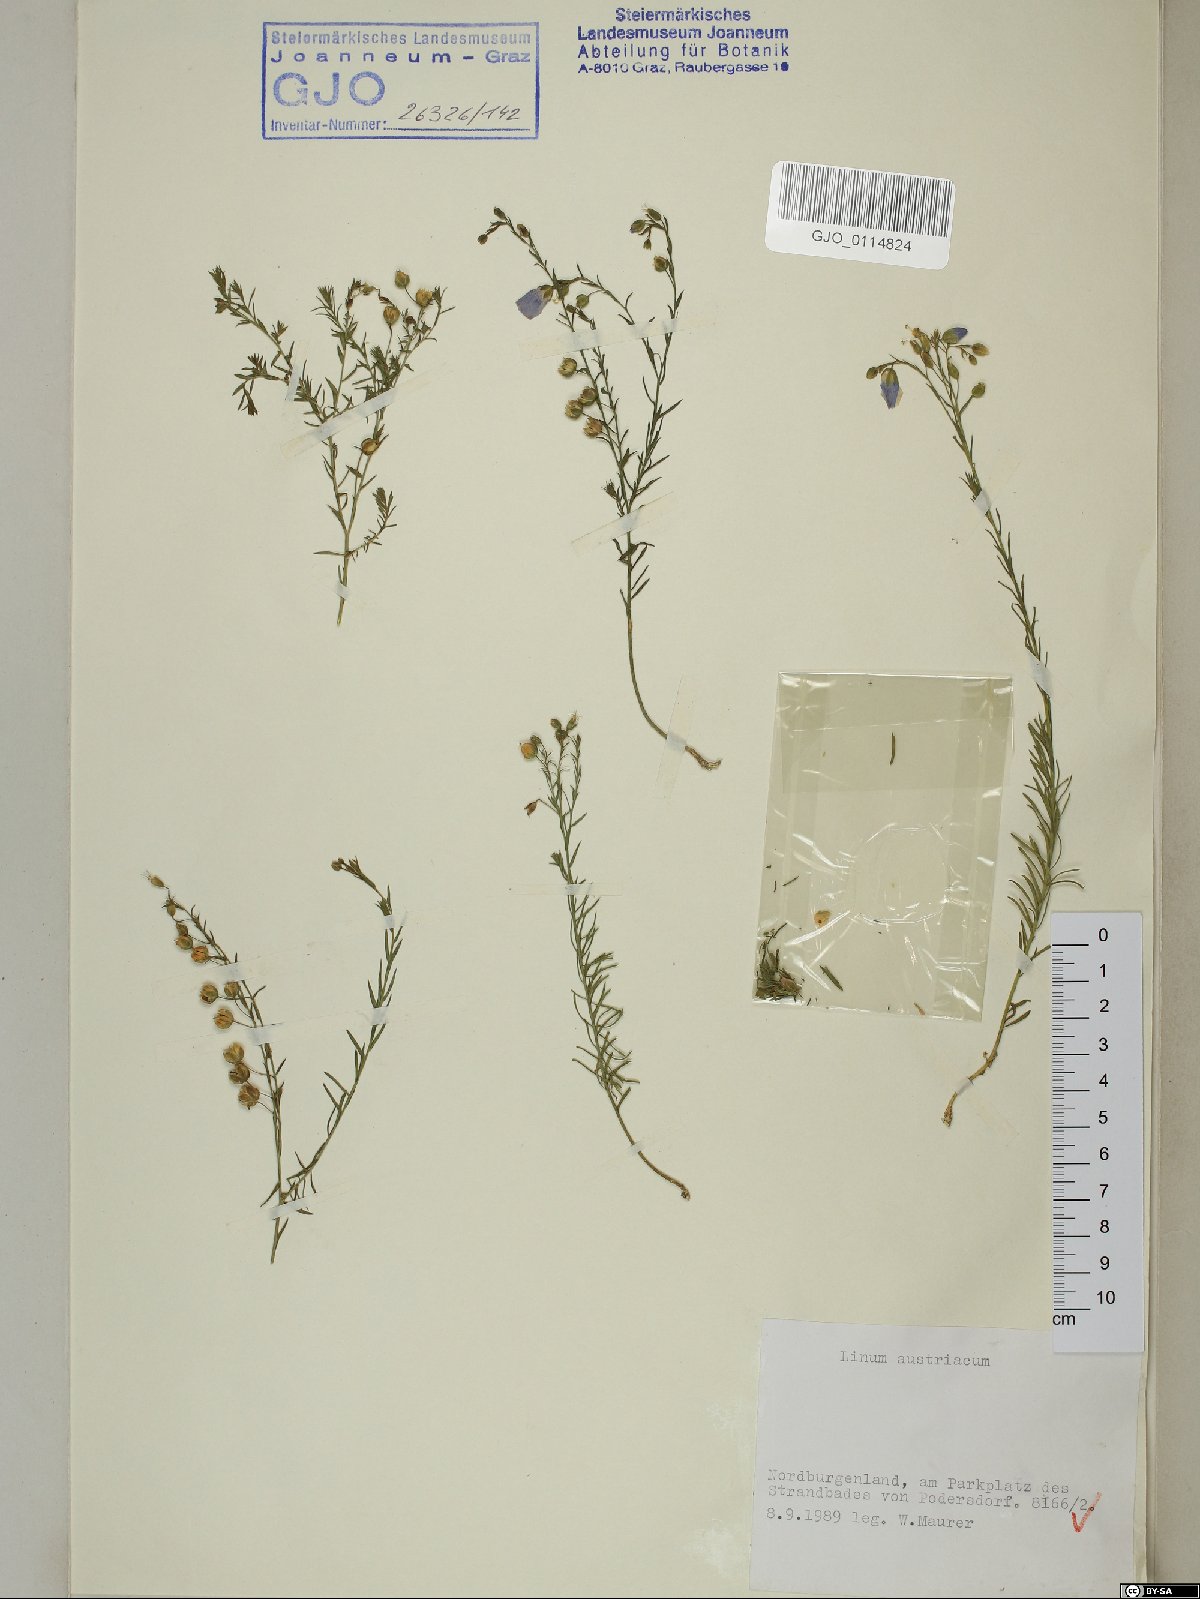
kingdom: Plantae
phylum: Tracheophyta
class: Magnoliopsida
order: Malpighiales
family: Linaceae
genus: Linum
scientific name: Linum austriacum
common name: Austrian flax
